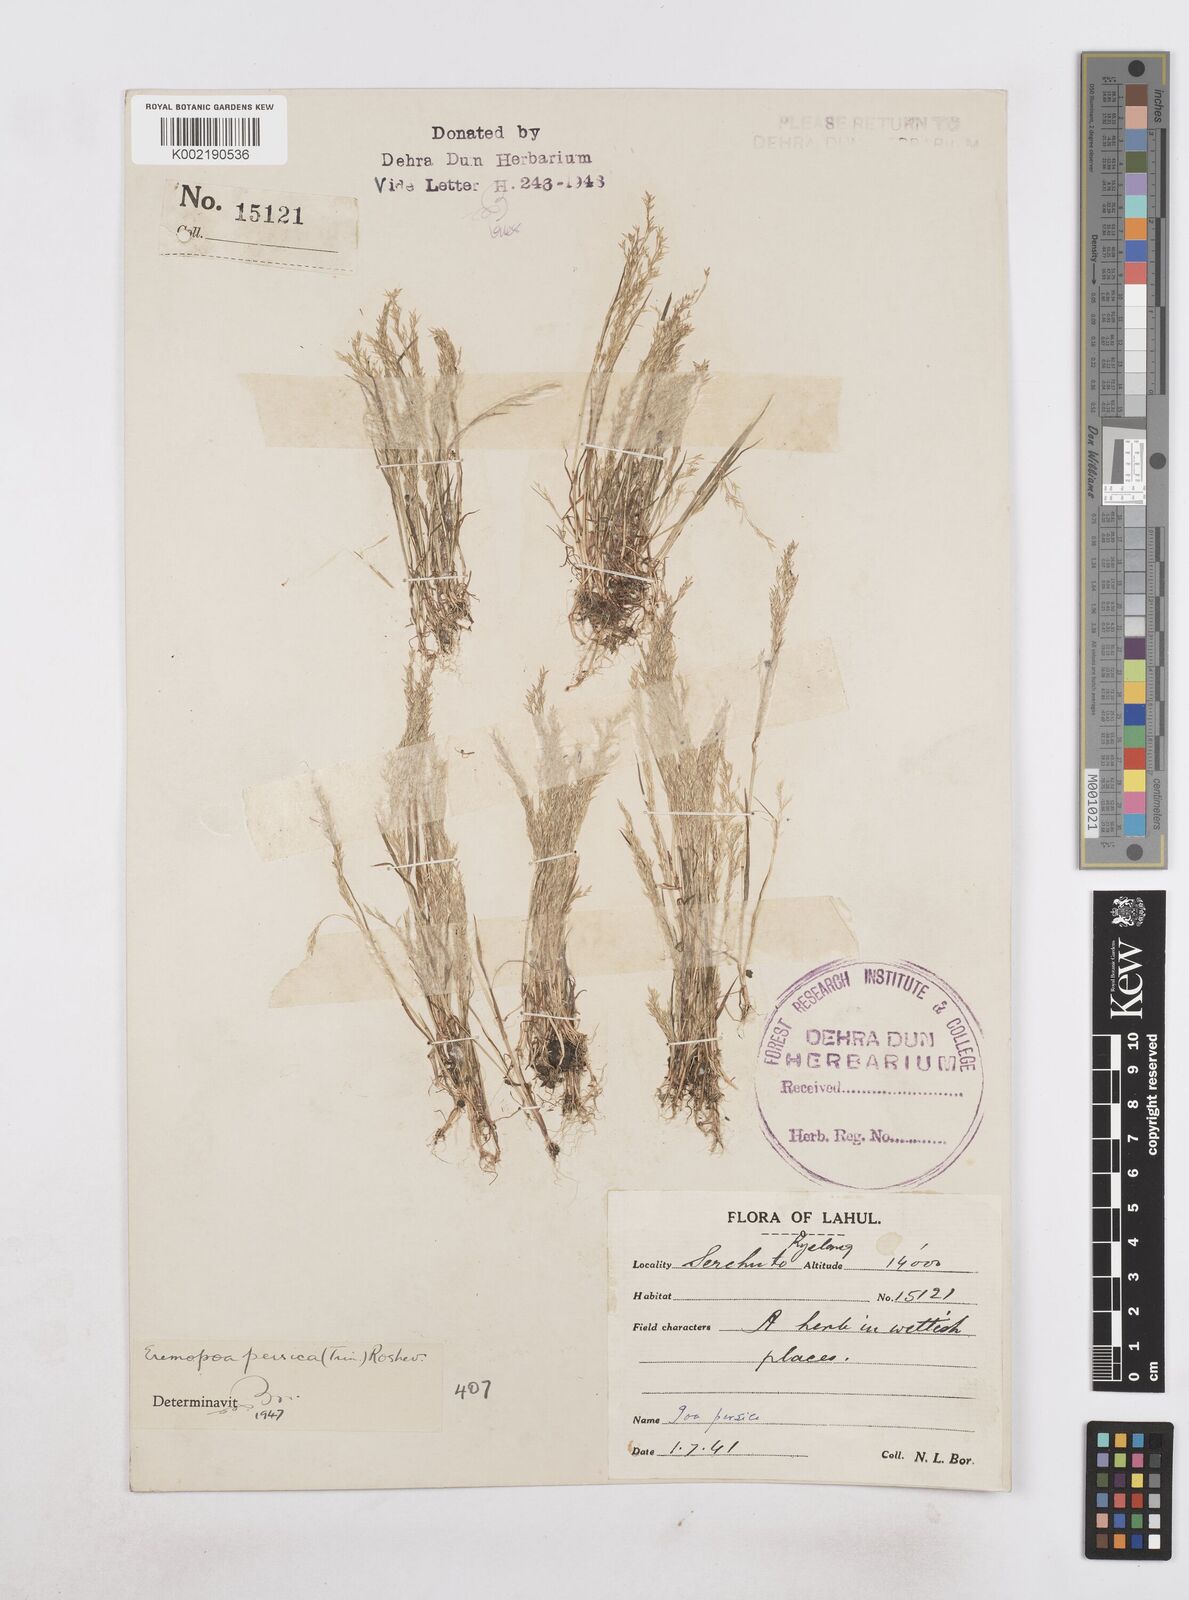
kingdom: Plantae
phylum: Tracheophyta
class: Liliopsida
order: Poales
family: Poaceae
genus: Poa
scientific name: Poa diaphora
